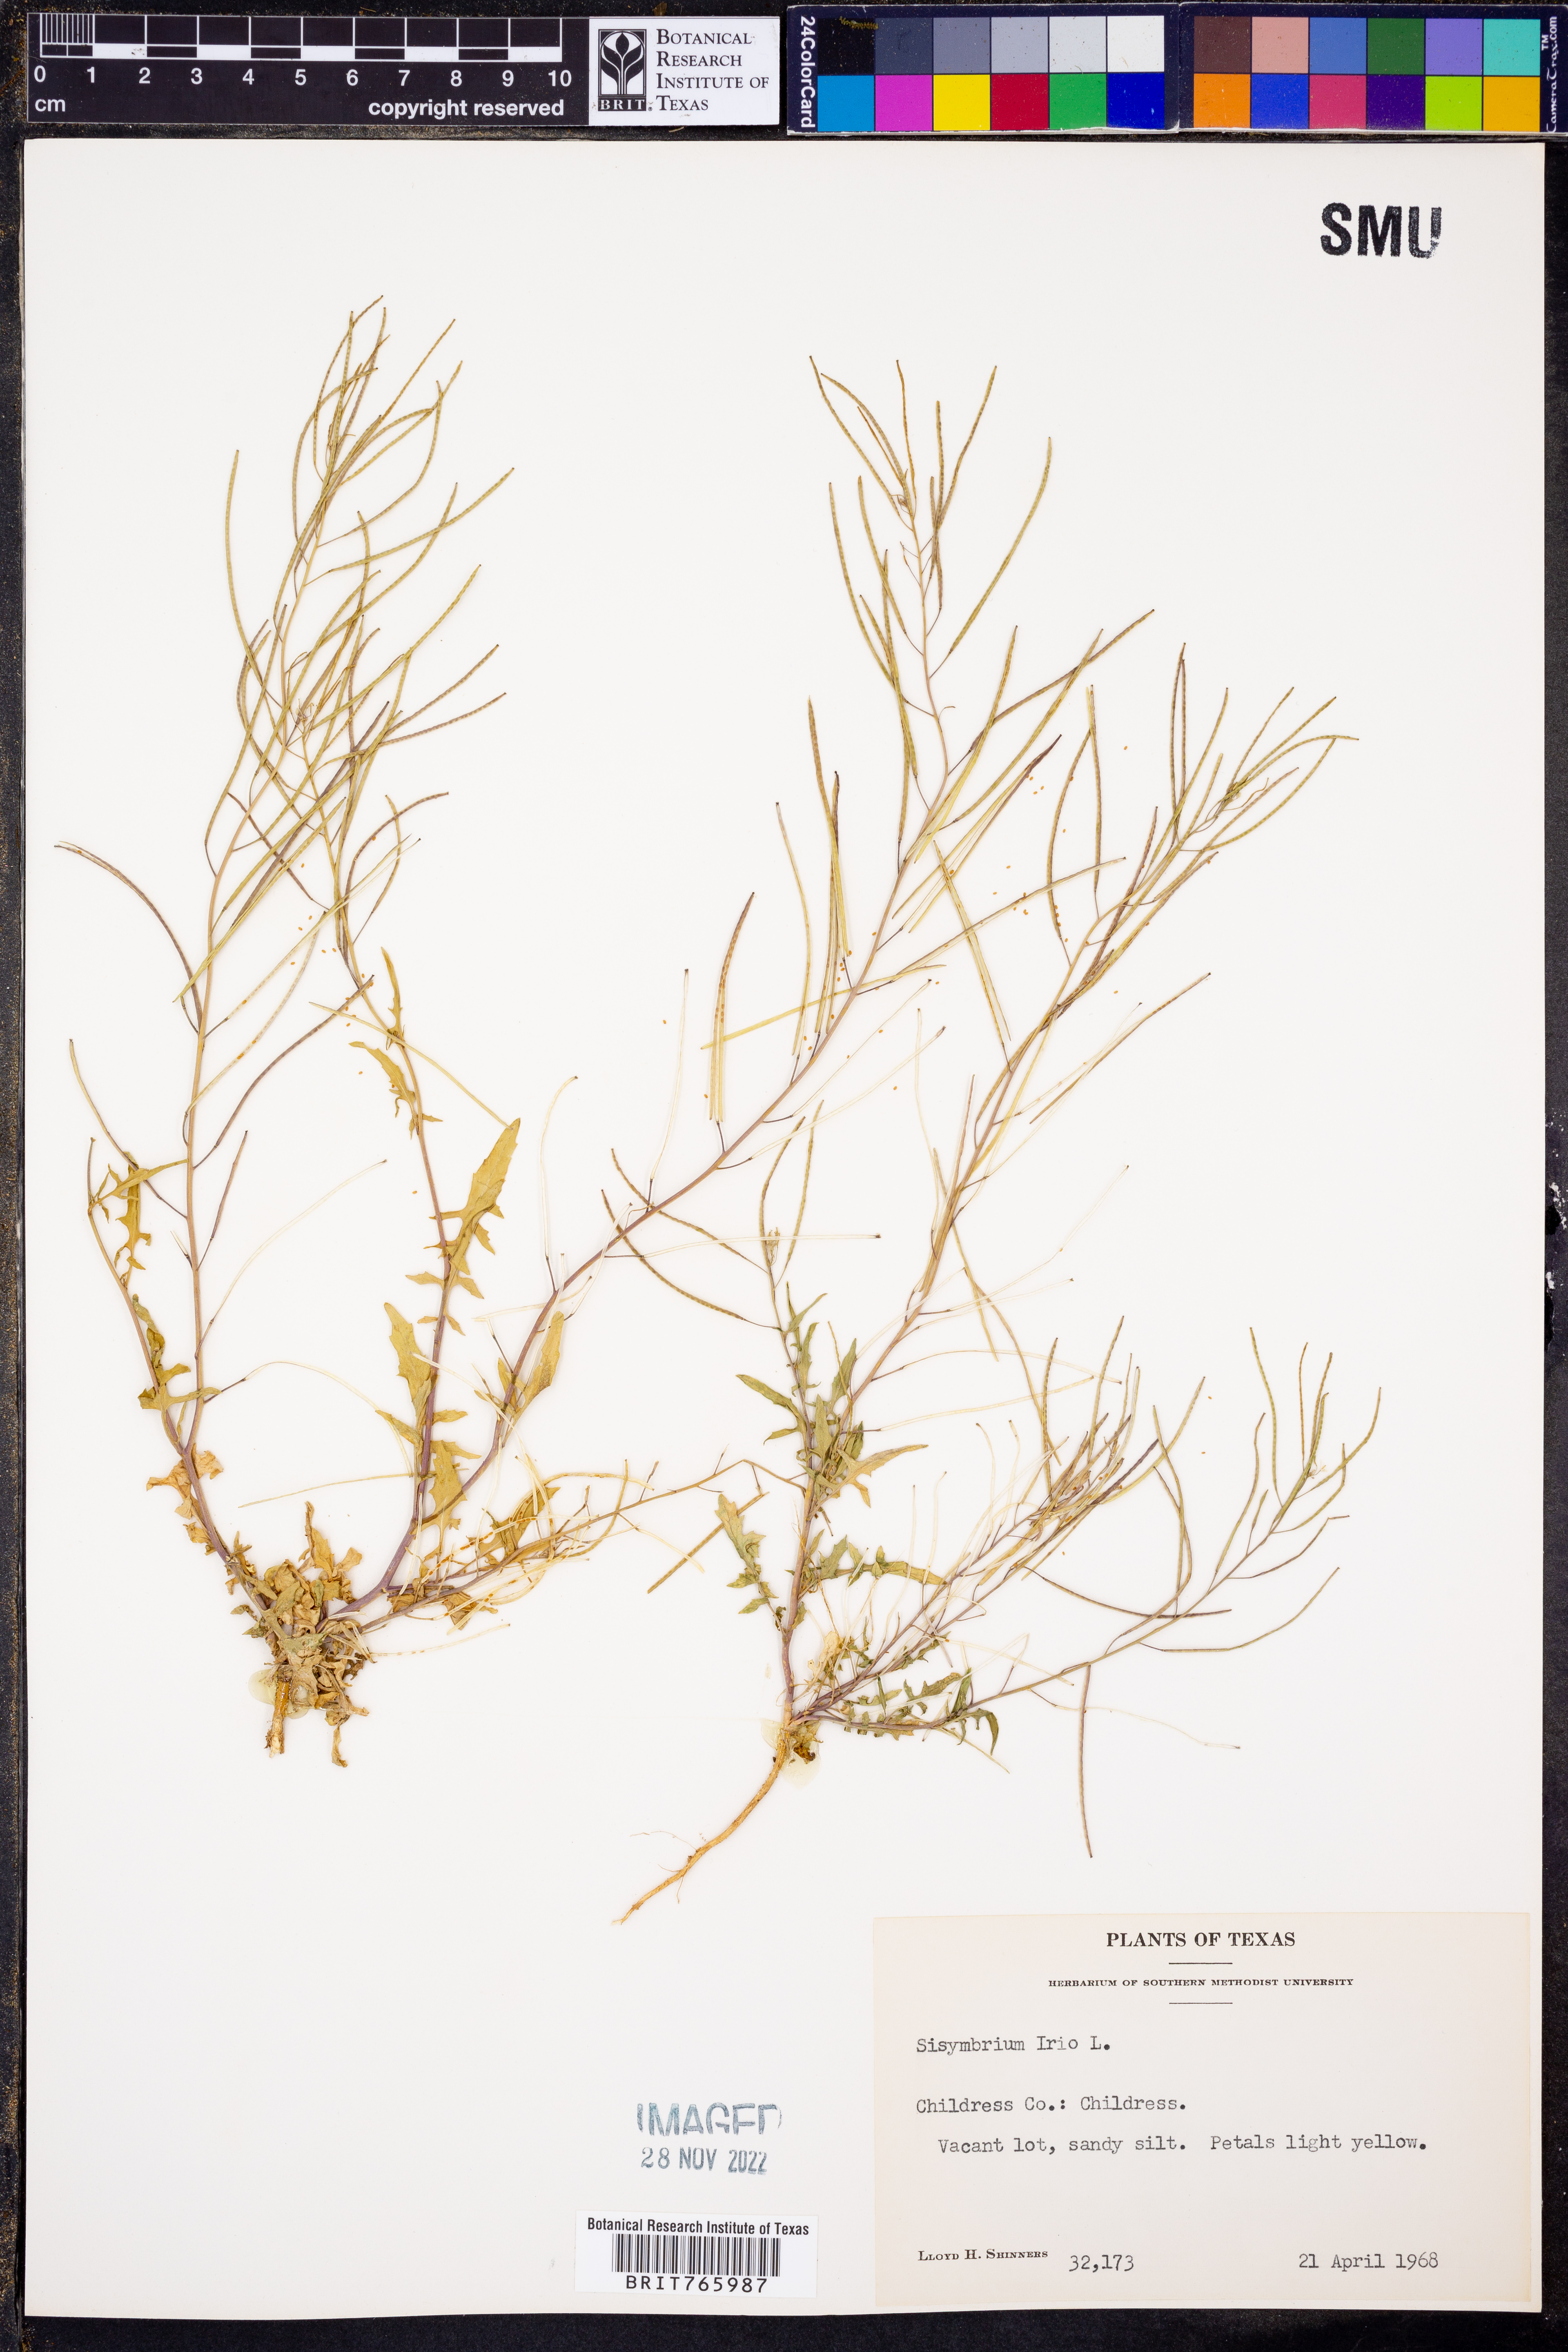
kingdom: Plantae
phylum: Tracheophyta
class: Magnoliopsida
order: Brassicales
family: Brassicaceae
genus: Sisymbrium
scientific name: Sisymbrium irio
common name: London rocket
